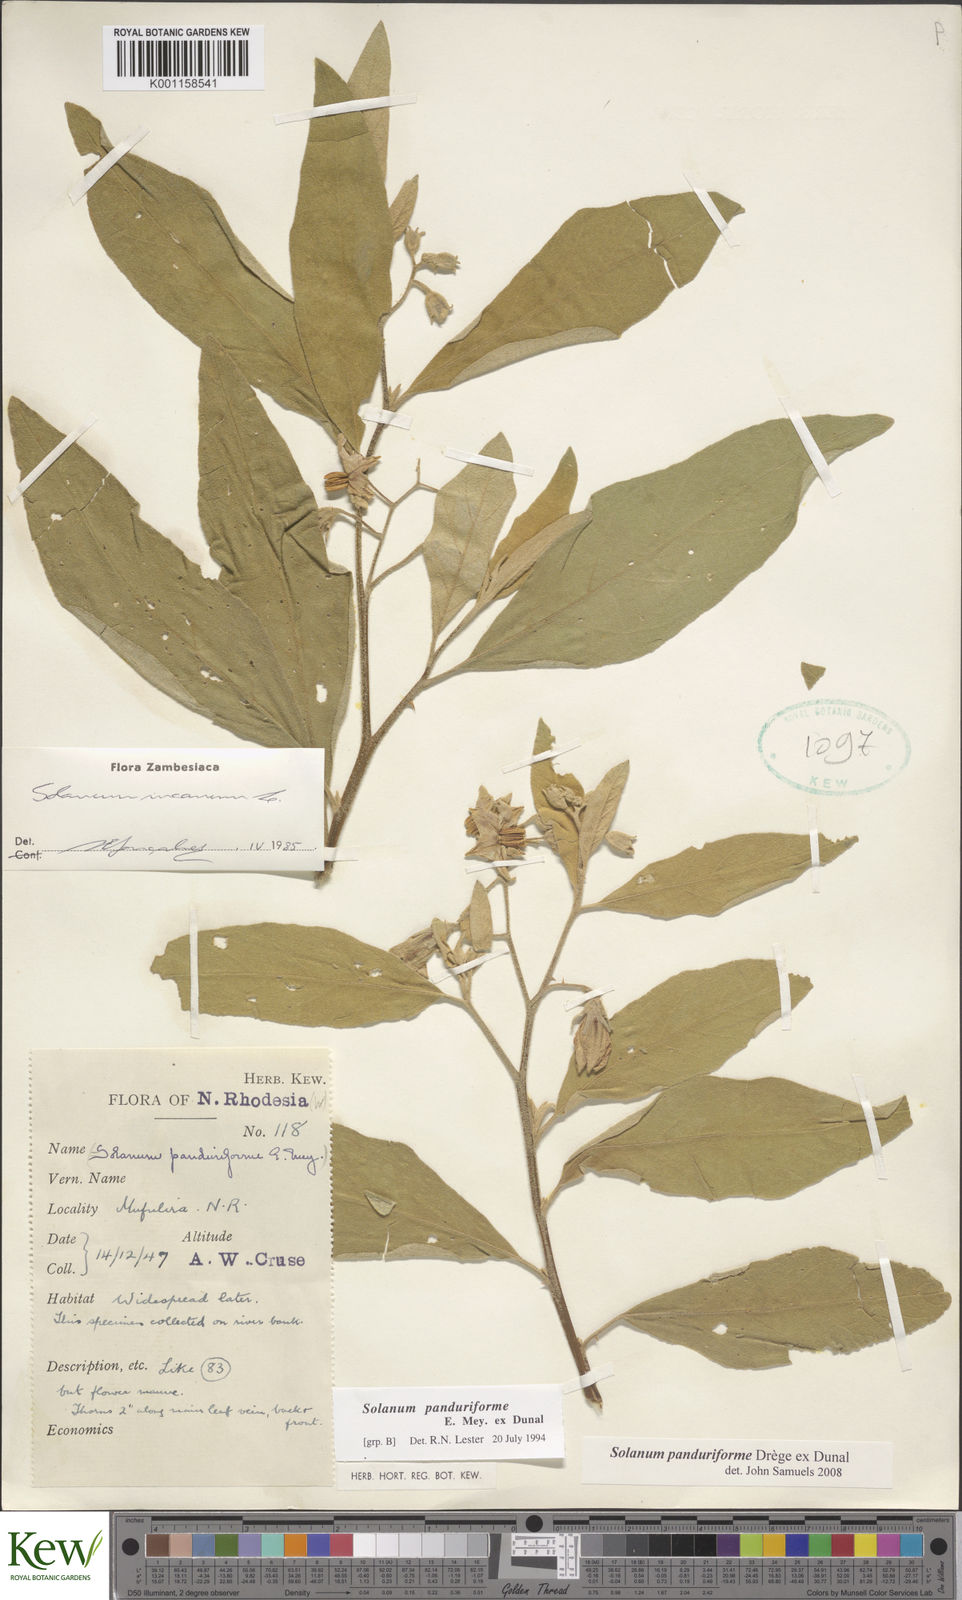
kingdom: Plantae
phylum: Tracheophyta
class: Magnoliopsida
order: Solanales
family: Solanaceae
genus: Solanum
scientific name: Solanum campylacanthum
